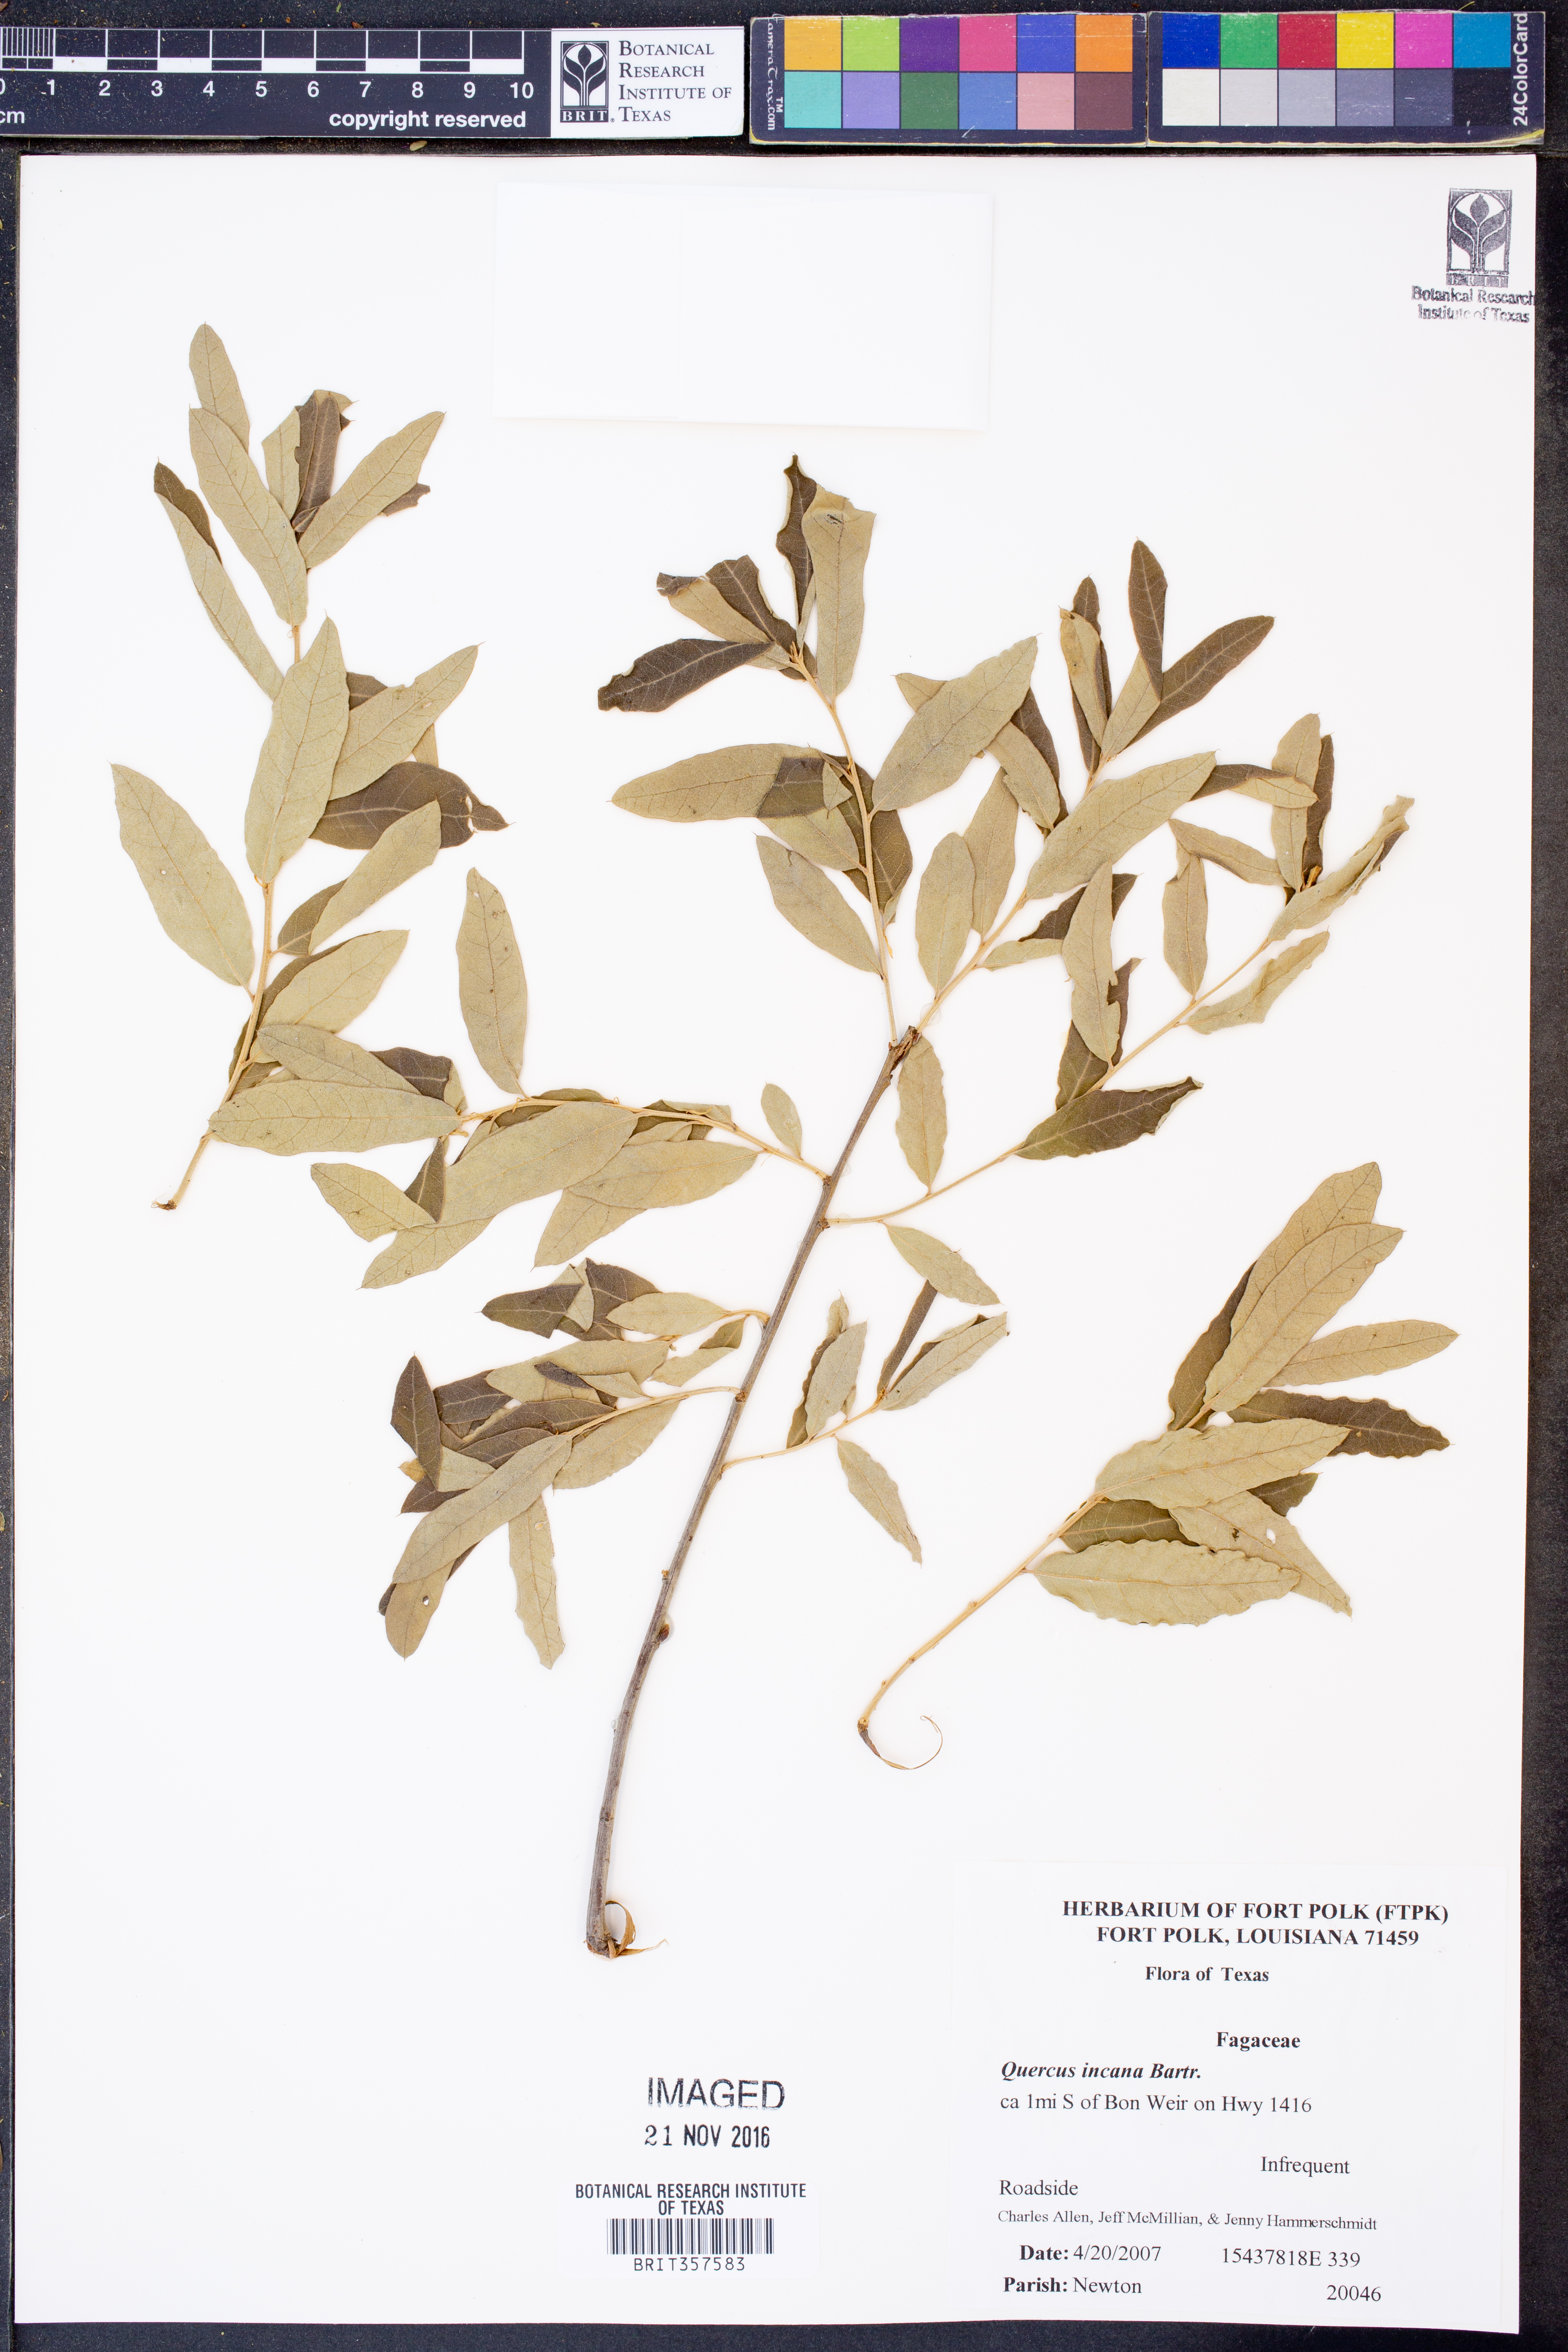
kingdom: Plantae
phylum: Tracheophyta
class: Magnoliopsida
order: Fagales
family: Fagaceae
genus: Quercus
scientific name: Quercus incana
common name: Bluejack oak
